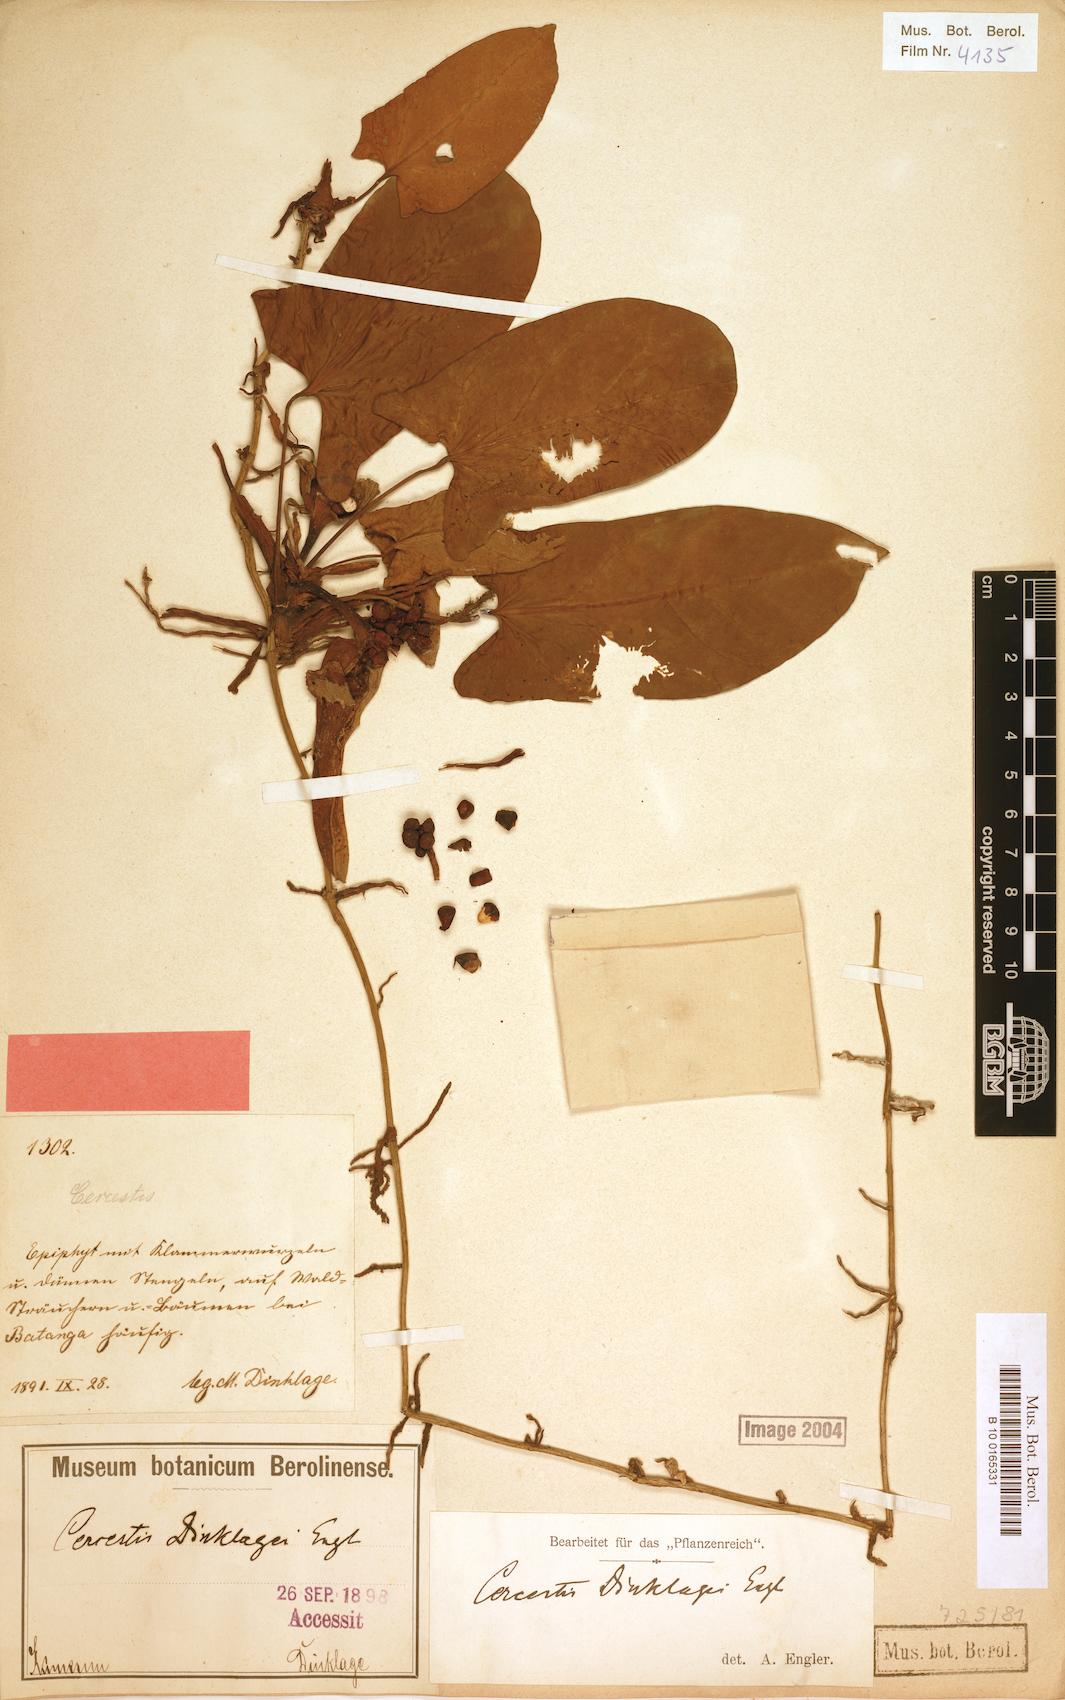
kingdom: Plantae
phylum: Tracheophyta
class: Liliopsida
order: Alismatales
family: Araceae
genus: Cercestis
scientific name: Cercestis dinklagei
